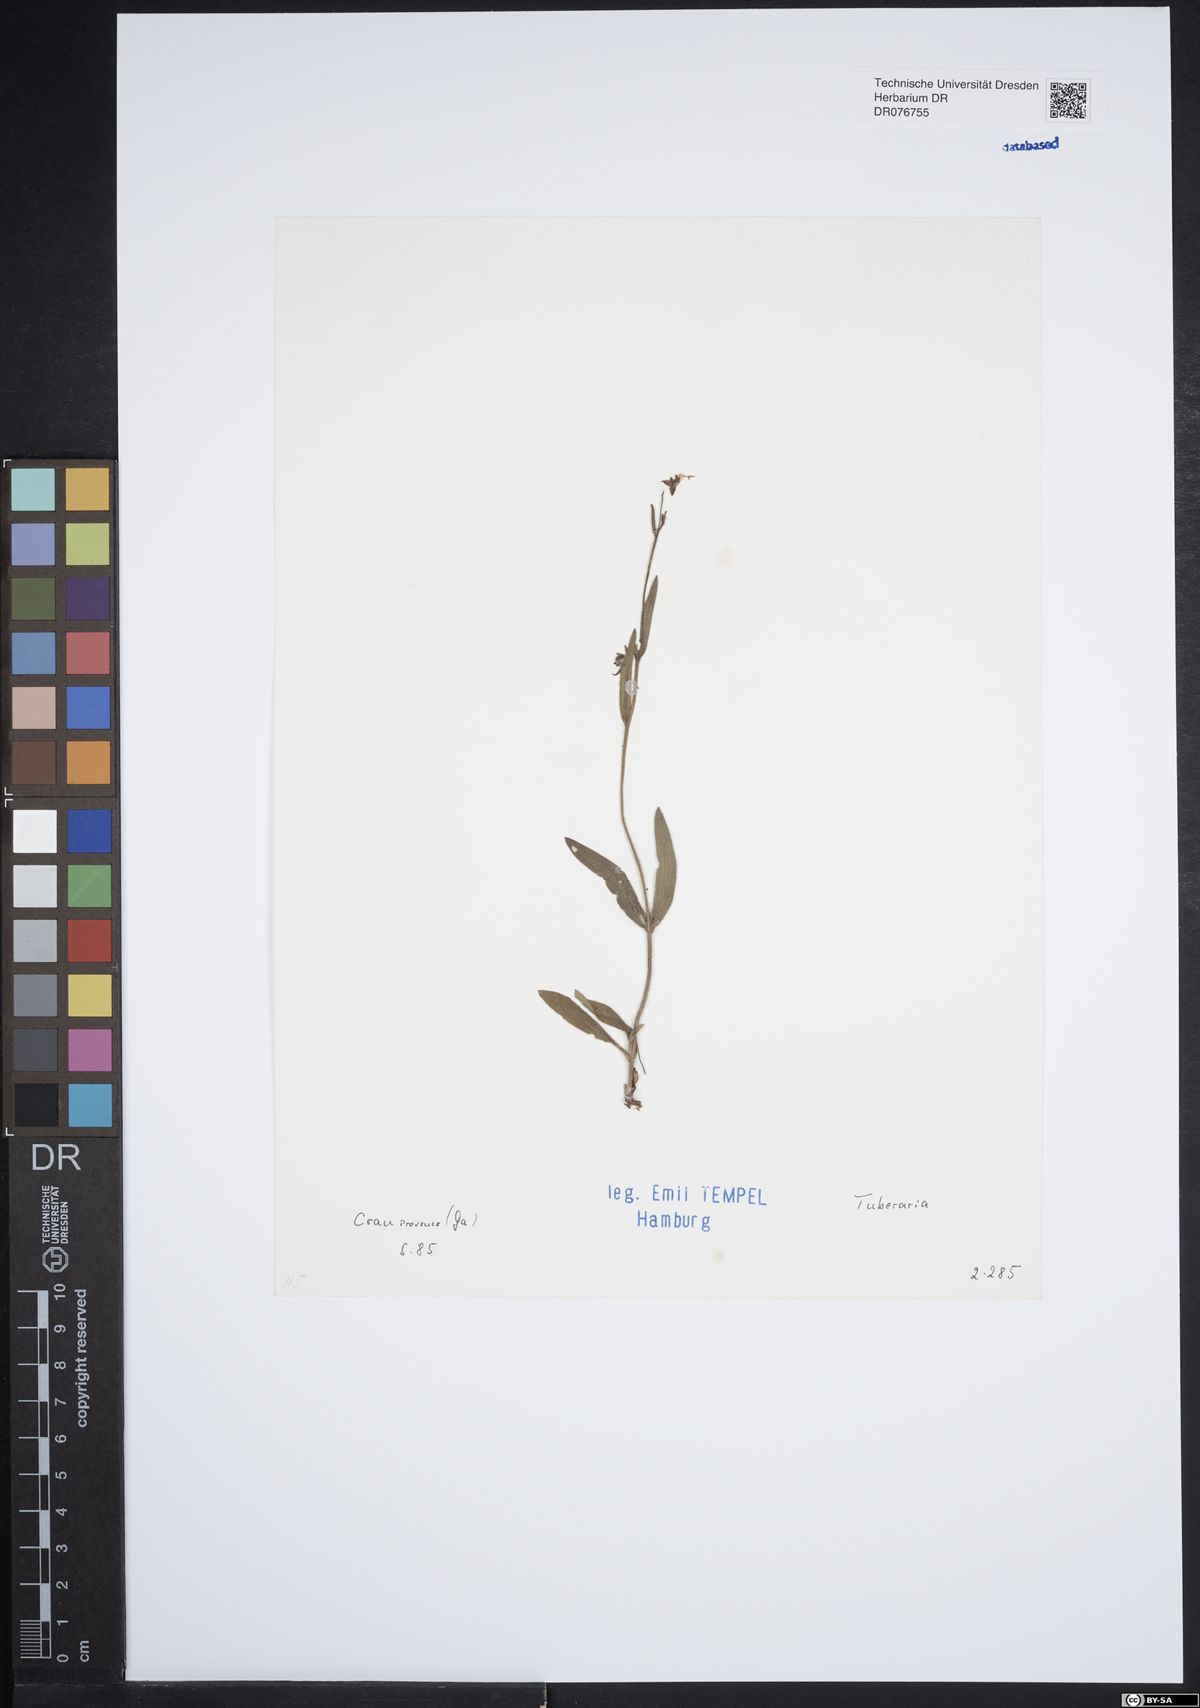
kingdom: Plantae
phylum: Tracheophyta
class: Magnoliopsida
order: Malvales
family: Cistaceae
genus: Tuberaria
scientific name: Tuberaria
